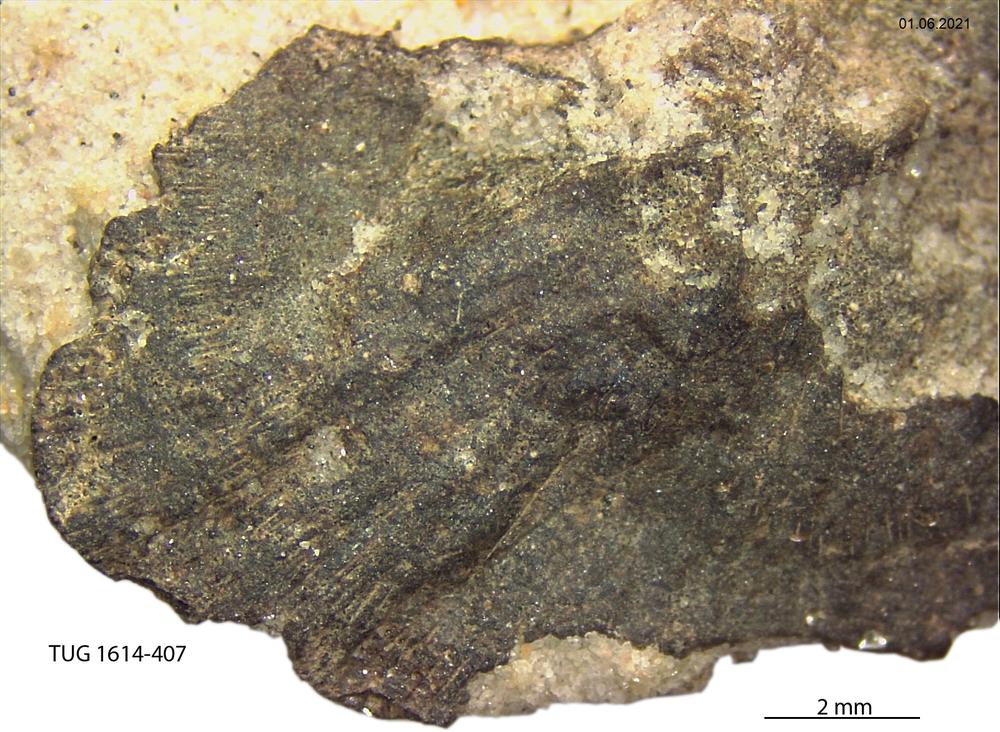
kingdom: Animalia
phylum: Mollusca
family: Scenellidae
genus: Scenella
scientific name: Scenella
